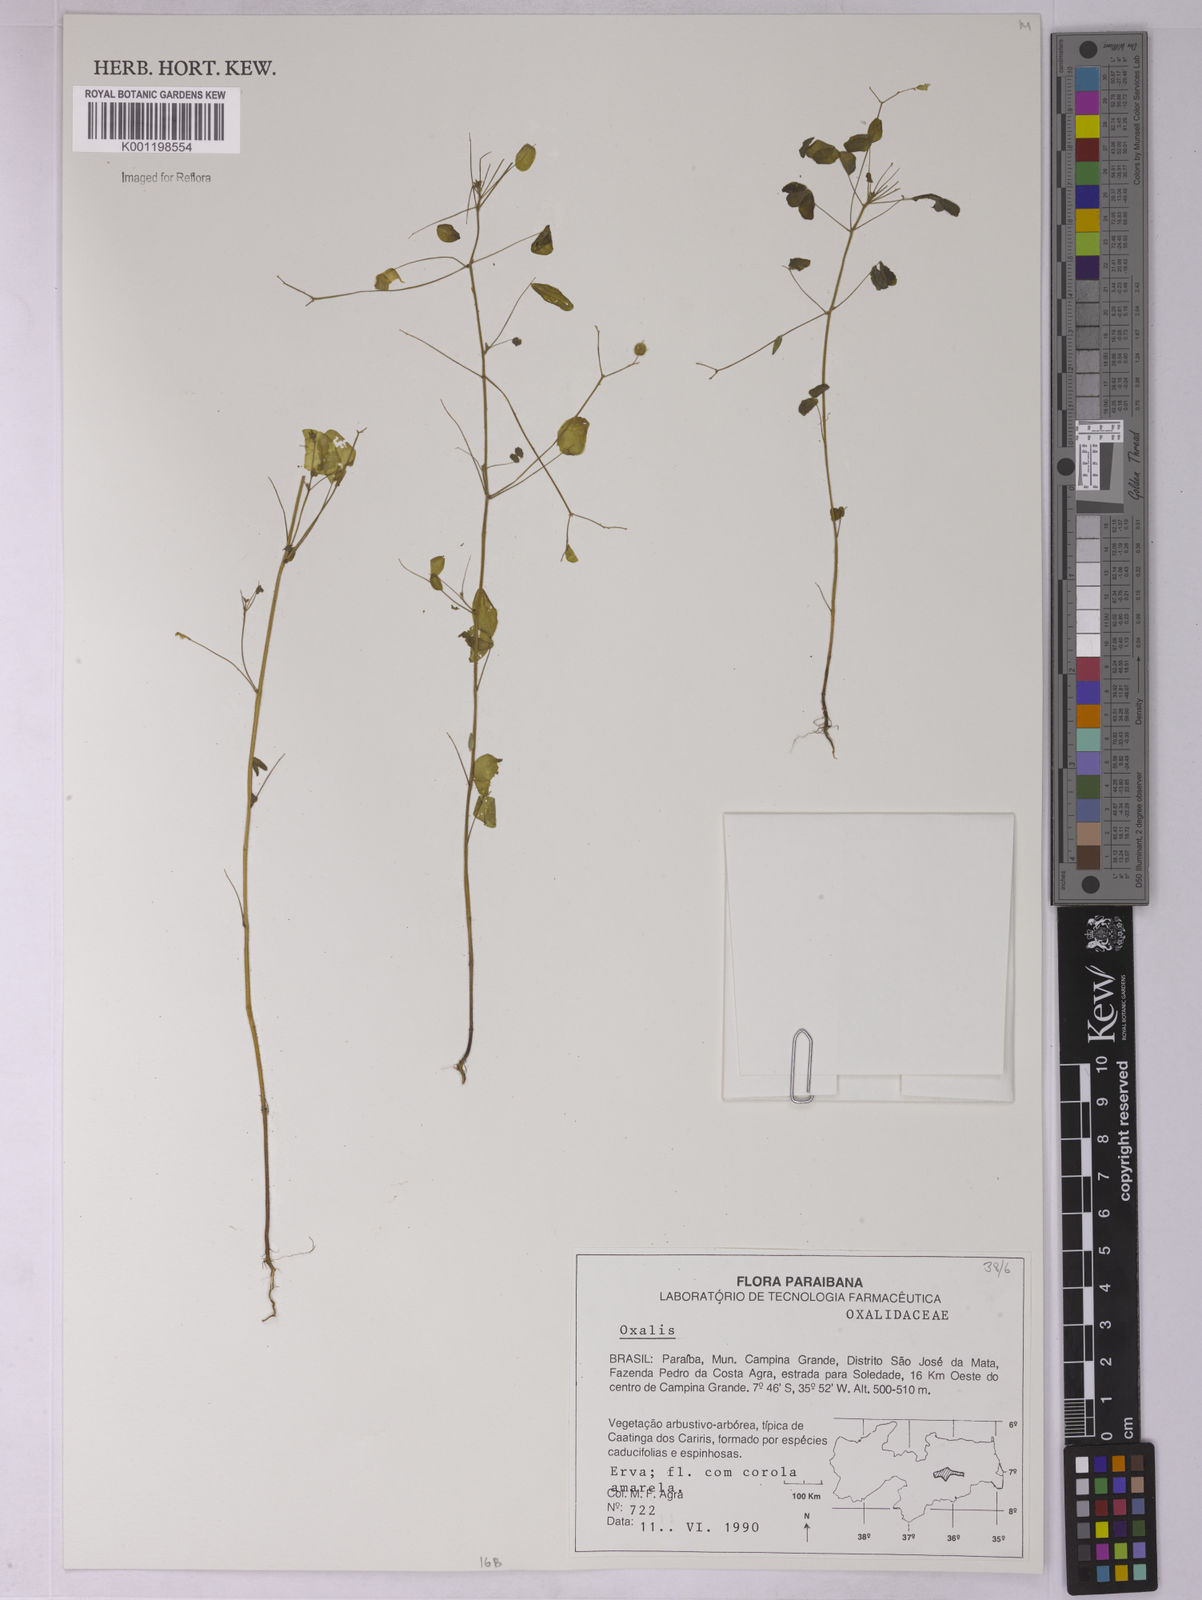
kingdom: Plantae
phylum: Tracheophyta
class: Magnoliopsida
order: Oxalidales
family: Oxalidaceae
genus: Oxalis
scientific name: Oxalis
